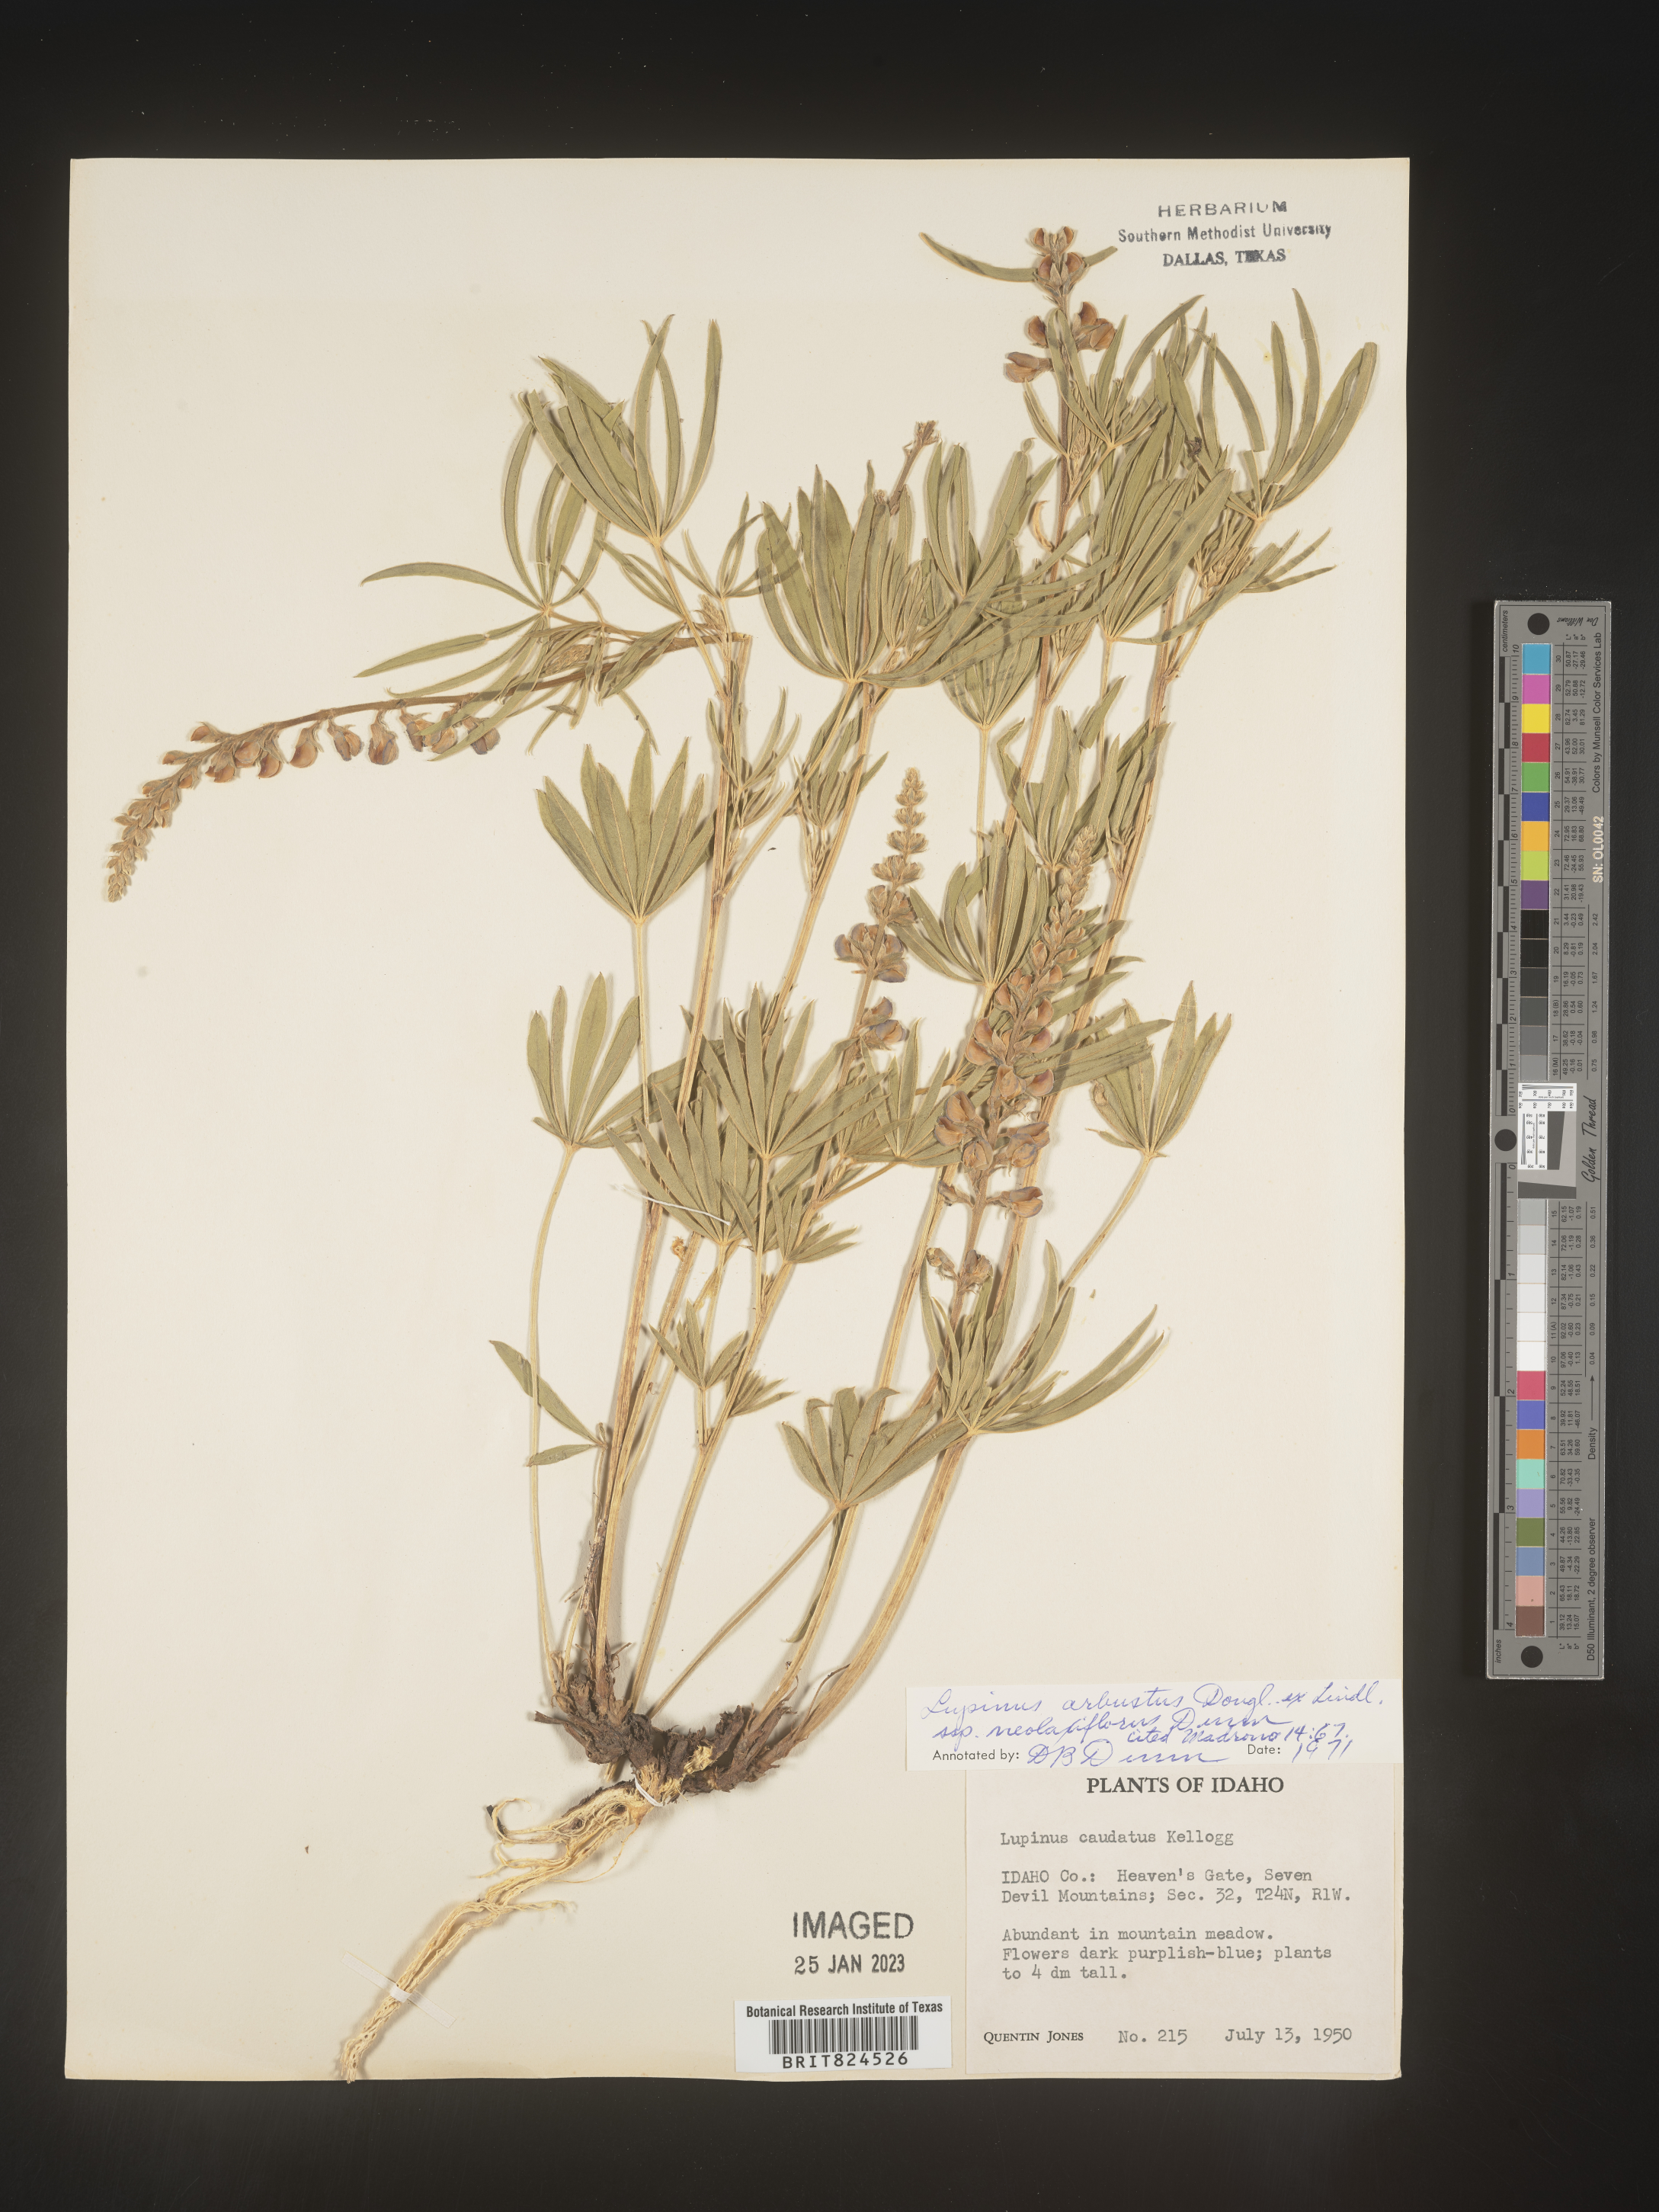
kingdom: Plantae
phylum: Tracheophyta
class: Magnoliopsida
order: Fabales
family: Fabaceae
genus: Lupinus
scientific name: Lupinus arbustus
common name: Montana lupine
